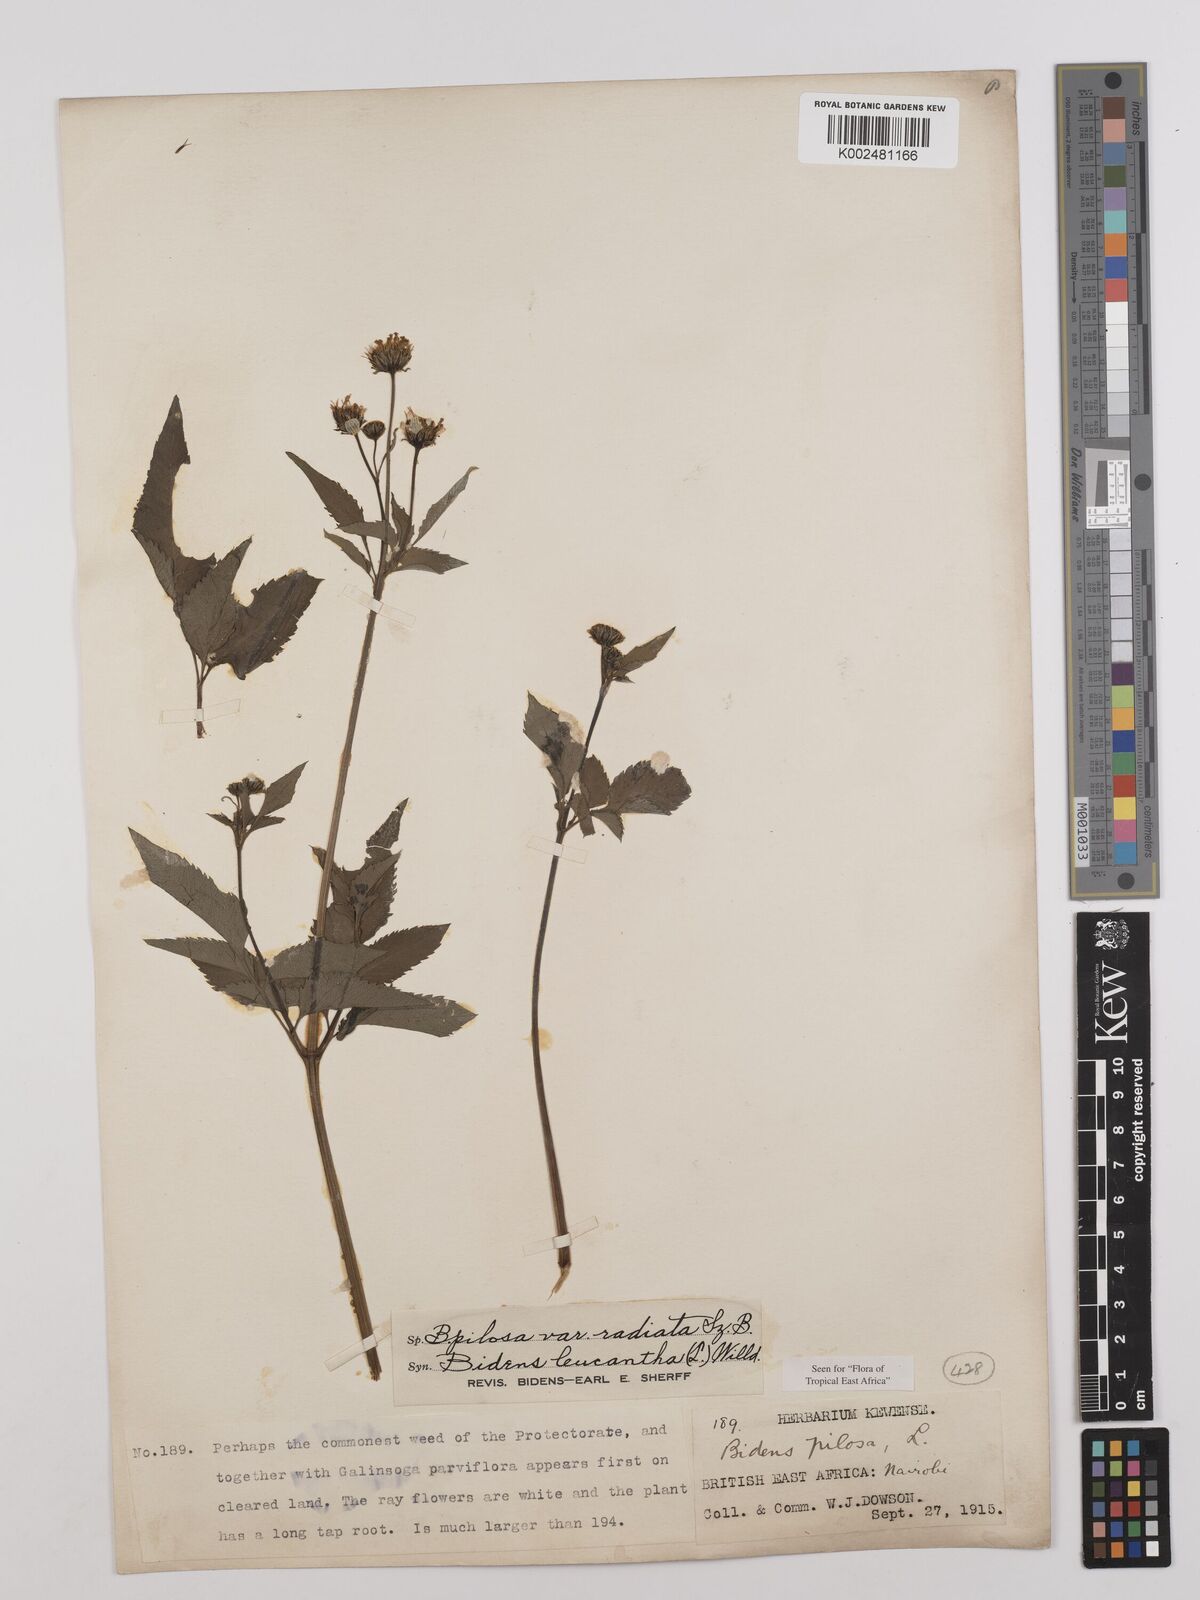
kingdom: Plantae
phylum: Tracheophyta
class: Magnoliopsida
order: Asterales
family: Asteraceae
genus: Bidens
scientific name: Bidens pilosa
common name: Black-jack
